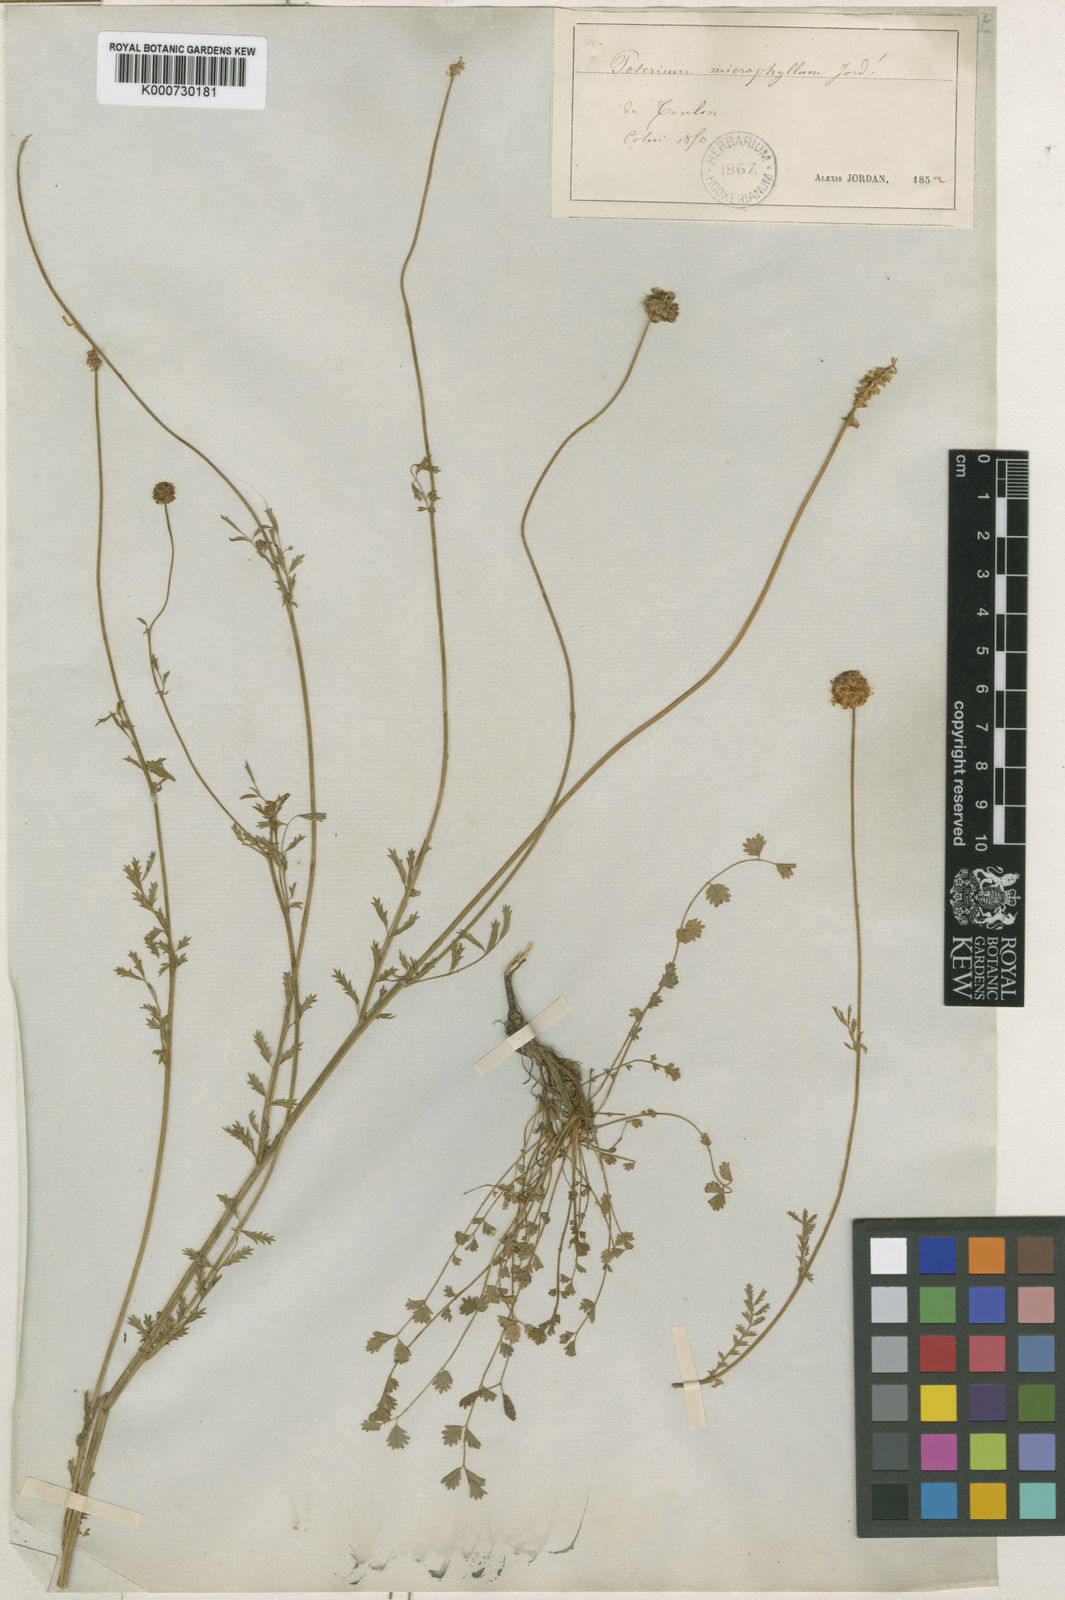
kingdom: Plantae
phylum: Tracheophyta
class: Magnoliopsida
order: Rosales
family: Rosaceae
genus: Sanguisorba
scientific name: Sanguisorba
